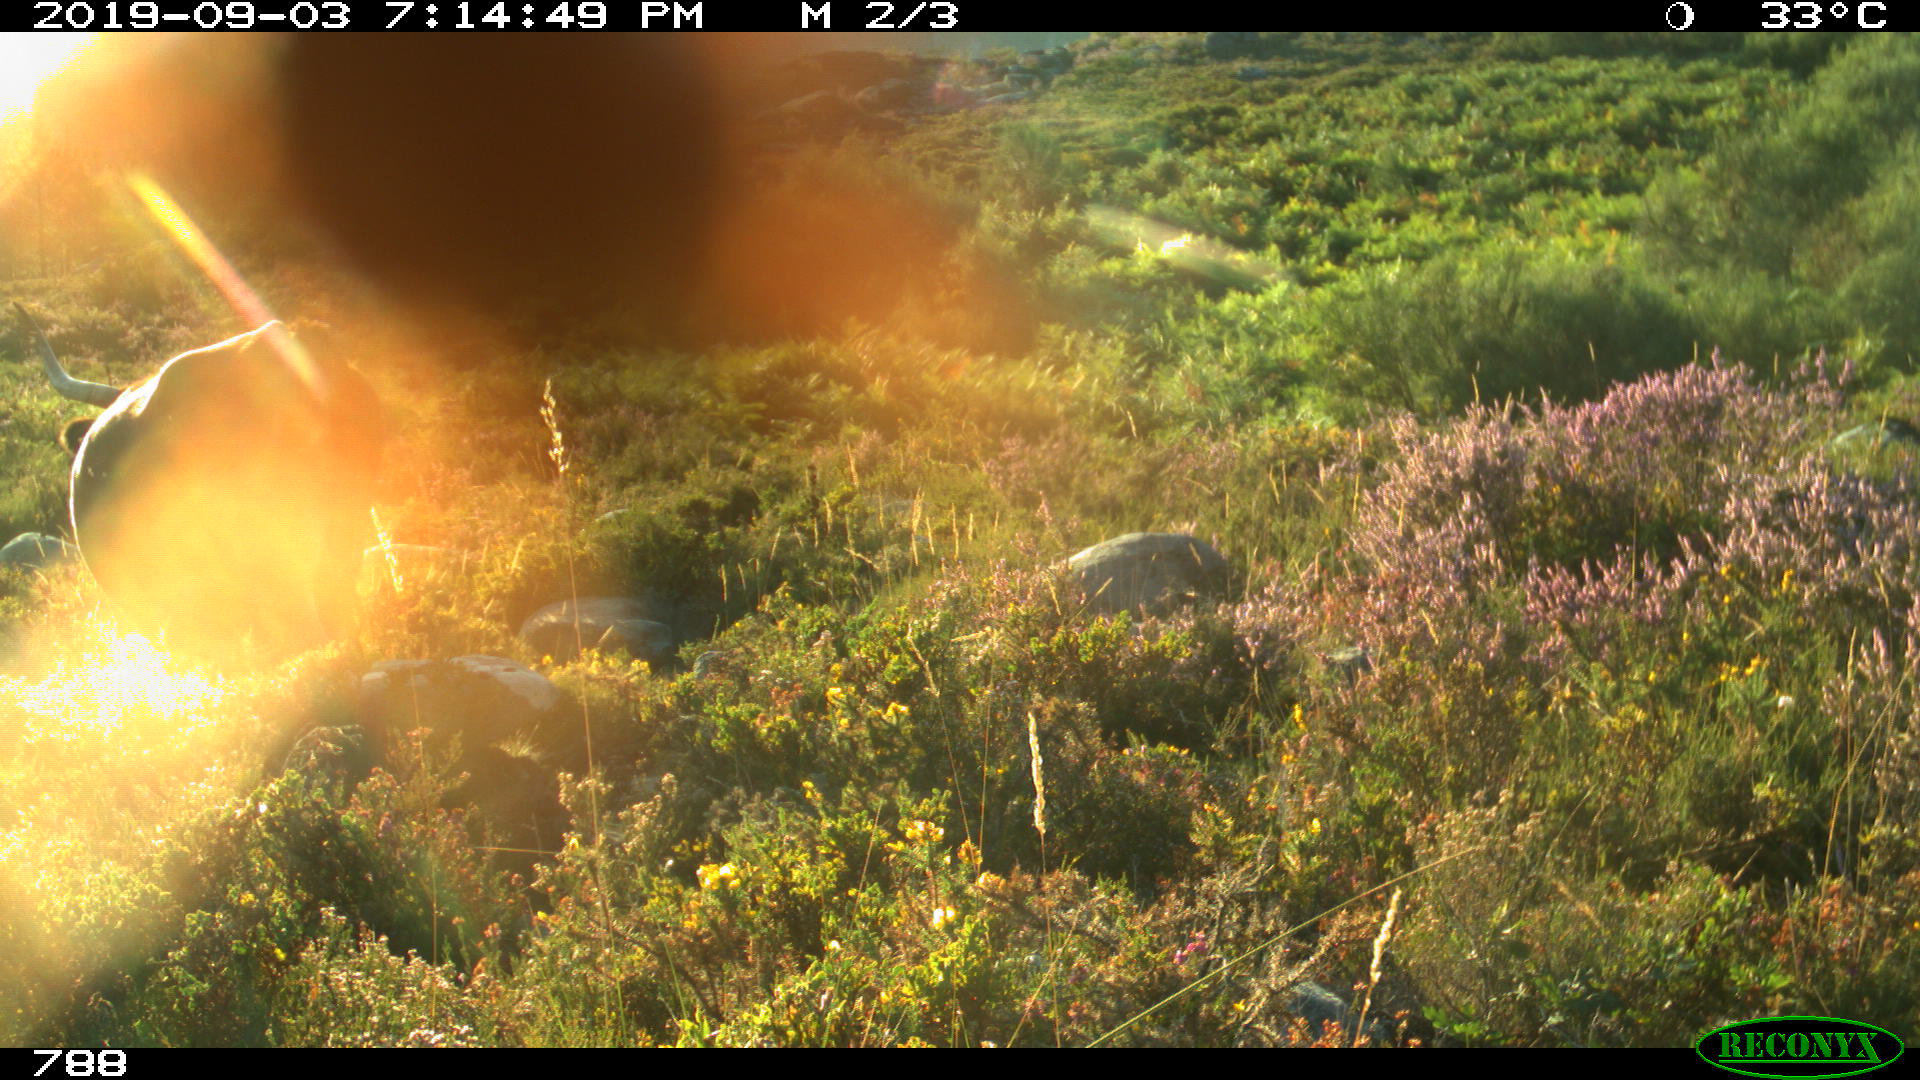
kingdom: Animalia
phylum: Chordata
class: Mammalia
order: Artiodactyla
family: Bovidae
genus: Bos
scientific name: Bos taurus
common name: Domesticated cattle
